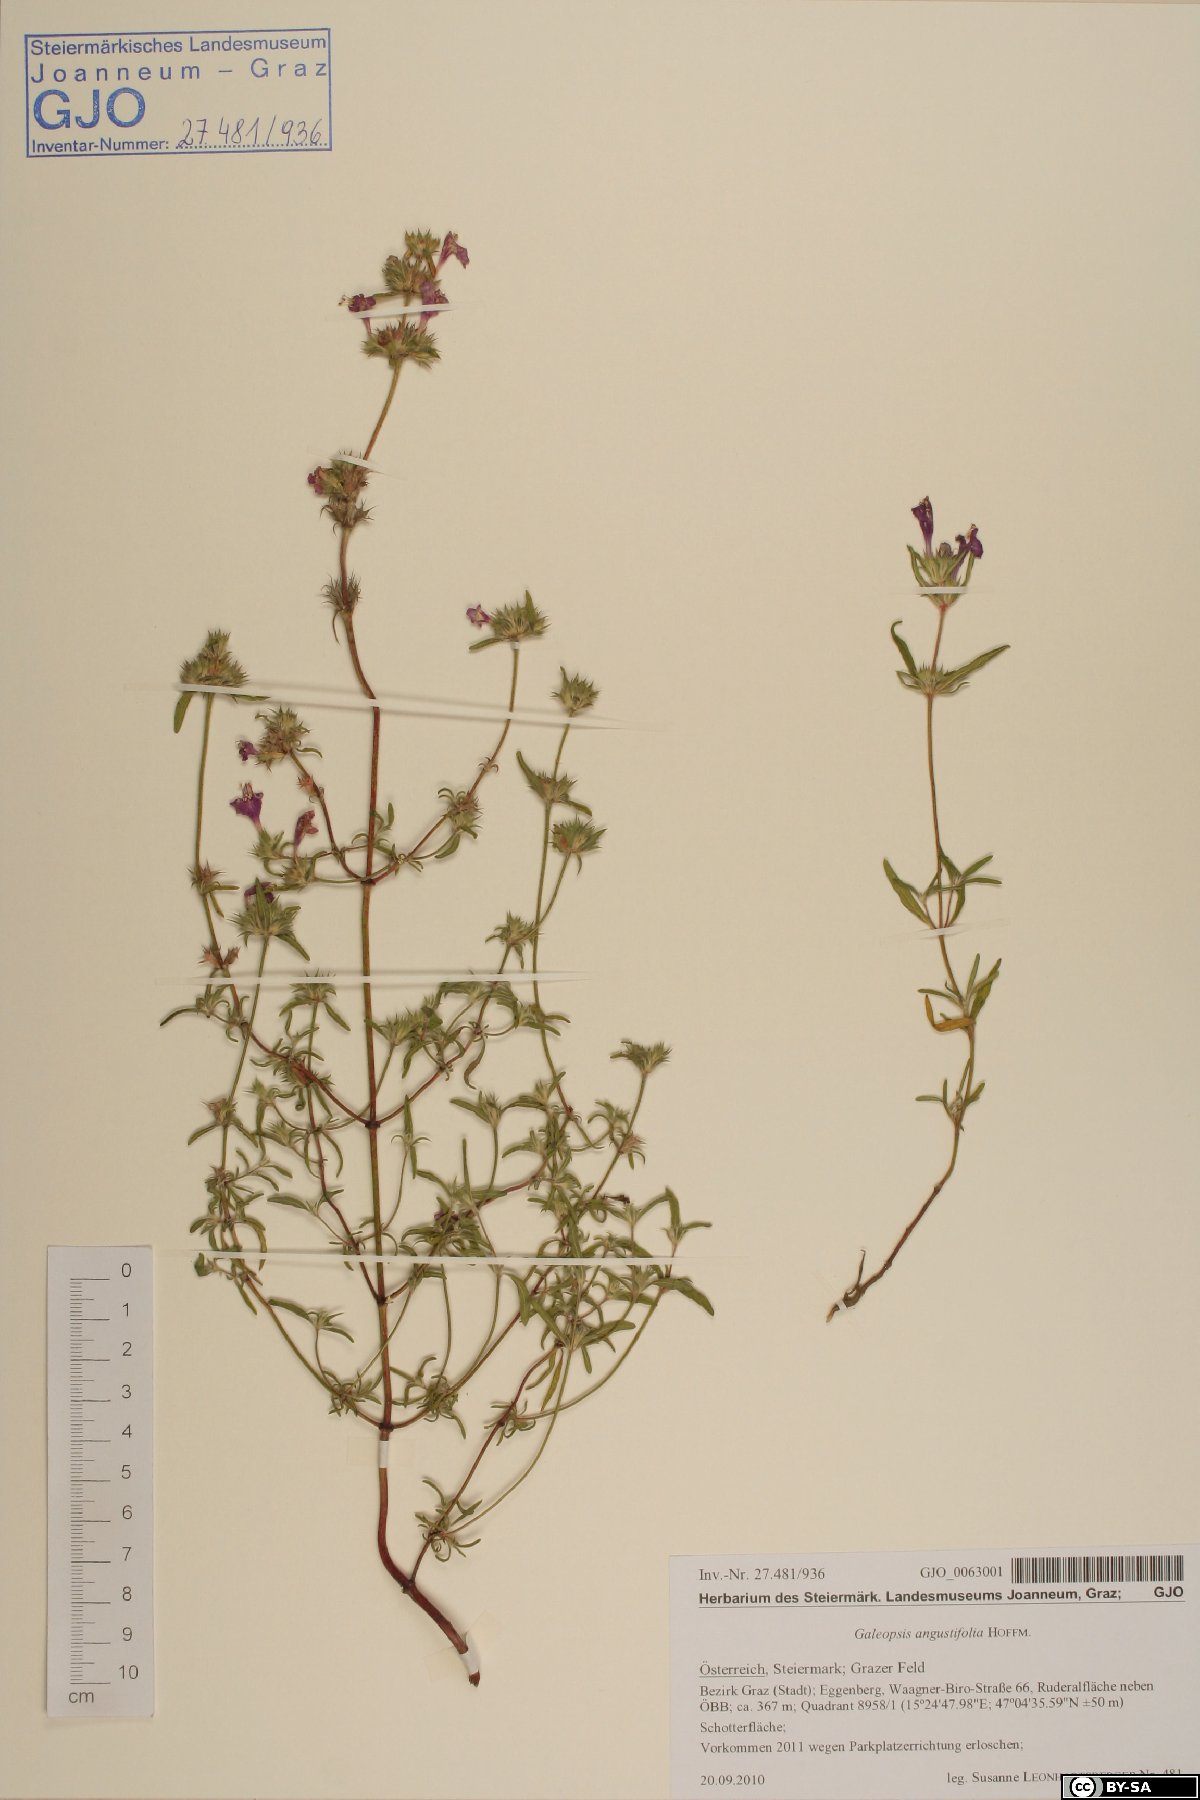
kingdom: Plantae
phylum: Tracheophyta
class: Magnoliopsida
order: Lamiales
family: Lamiaceae
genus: Galeopsis
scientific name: Galeopsis angustifolia
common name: Red hemp-nettle
